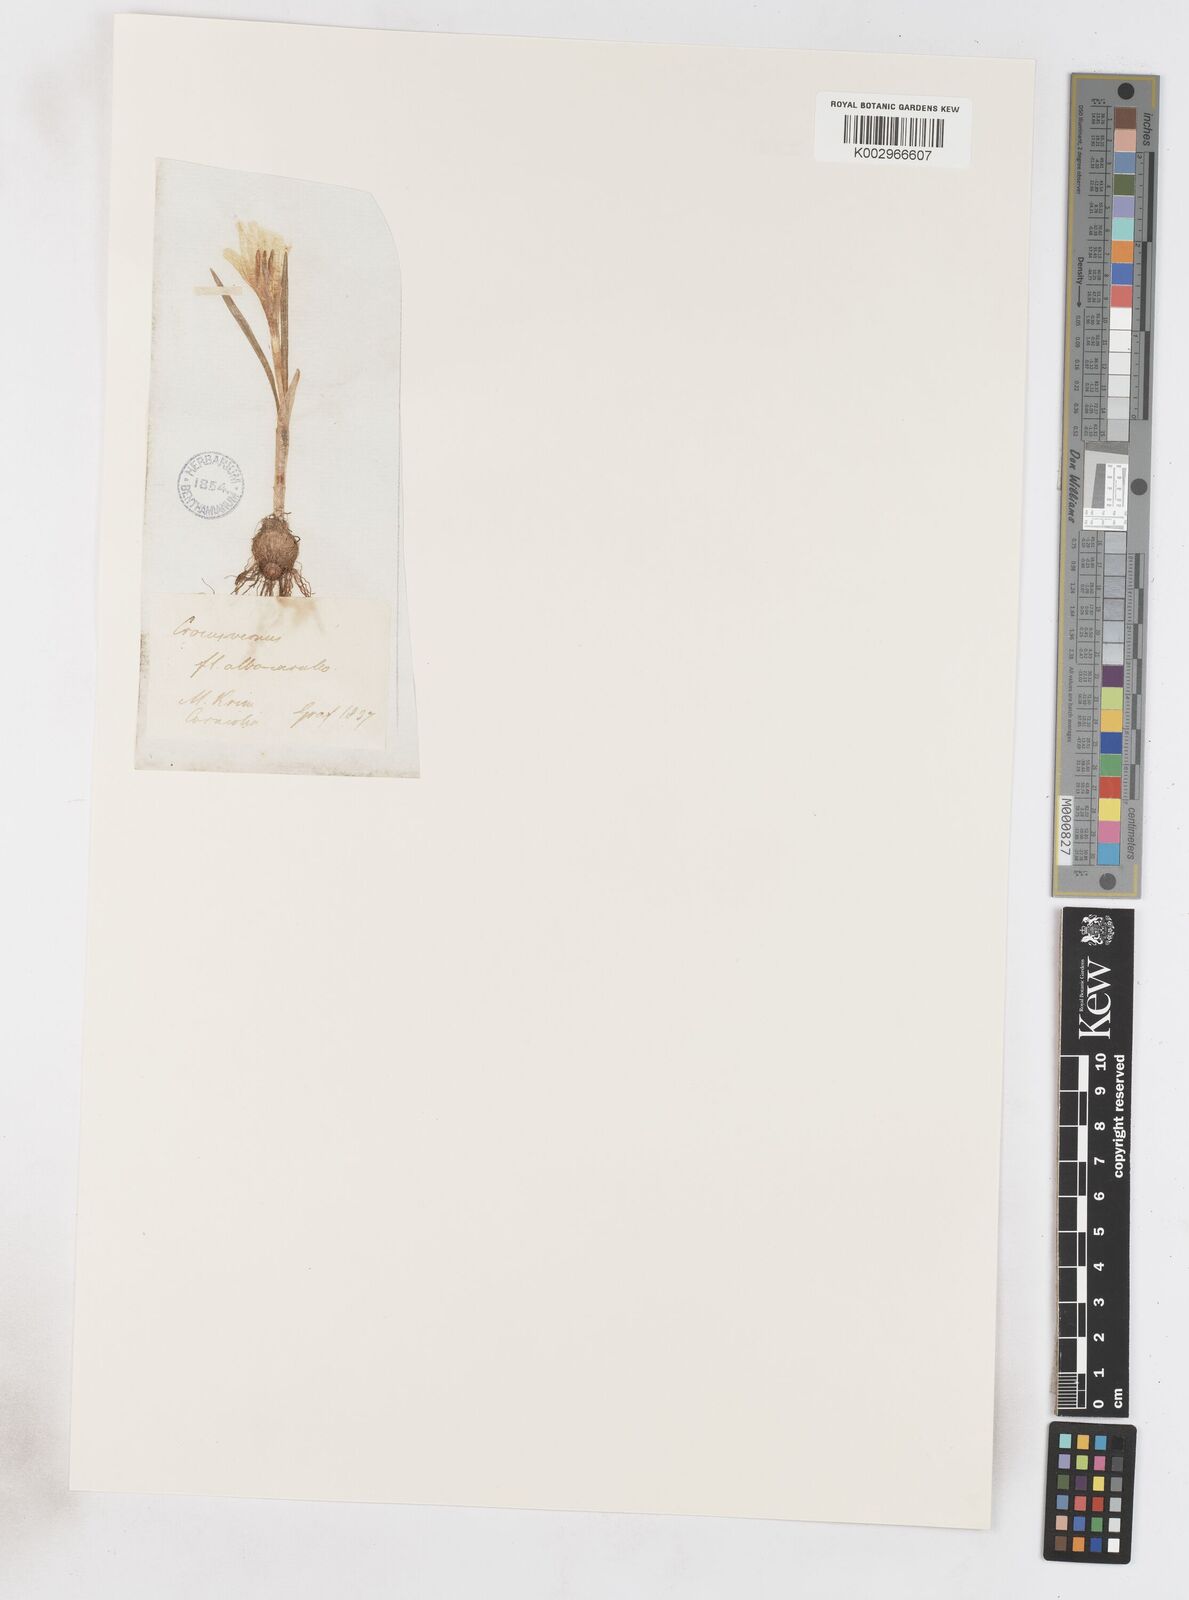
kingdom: Plantae
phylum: Tracheophyta
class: Liliopsida
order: Asparagales
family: Iridaceae
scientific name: Iridaceae
